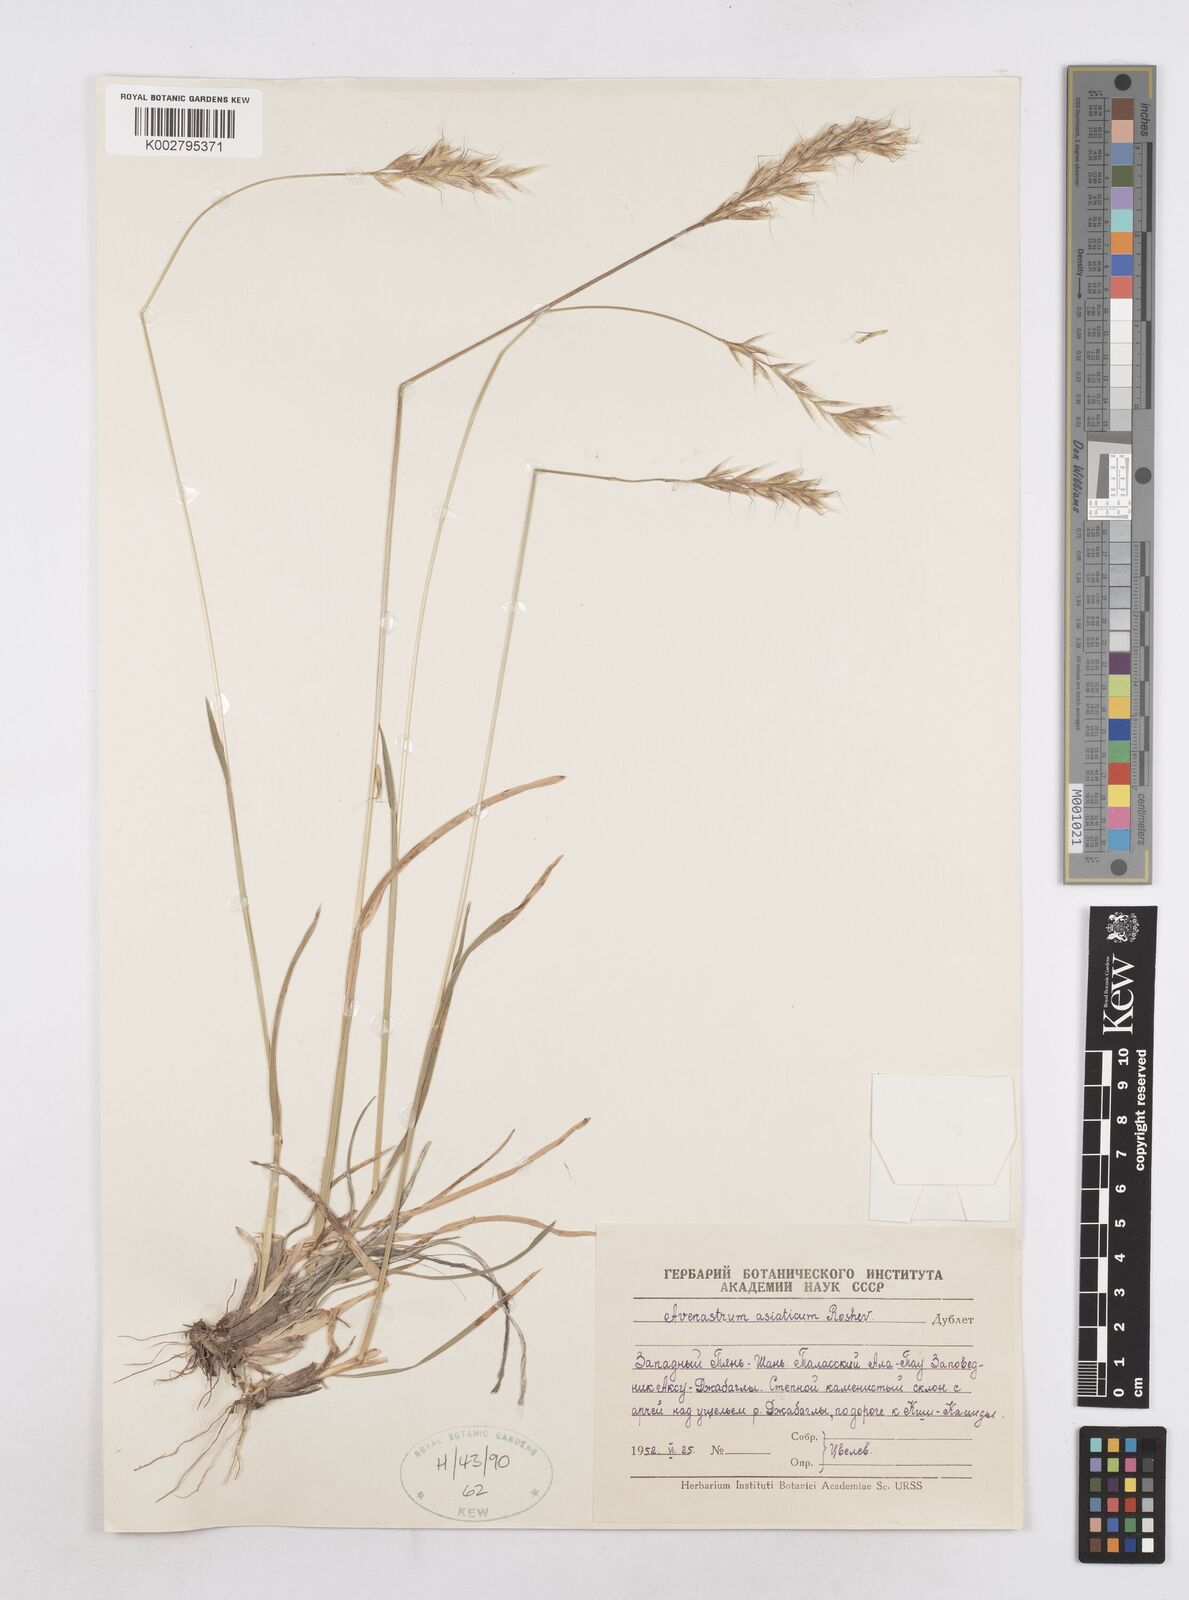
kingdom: Plantae
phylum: Tracheophyta
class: Liliopsida
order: Poales
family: Poaceae
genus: Helictotrichon
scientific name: Helictotrichon
